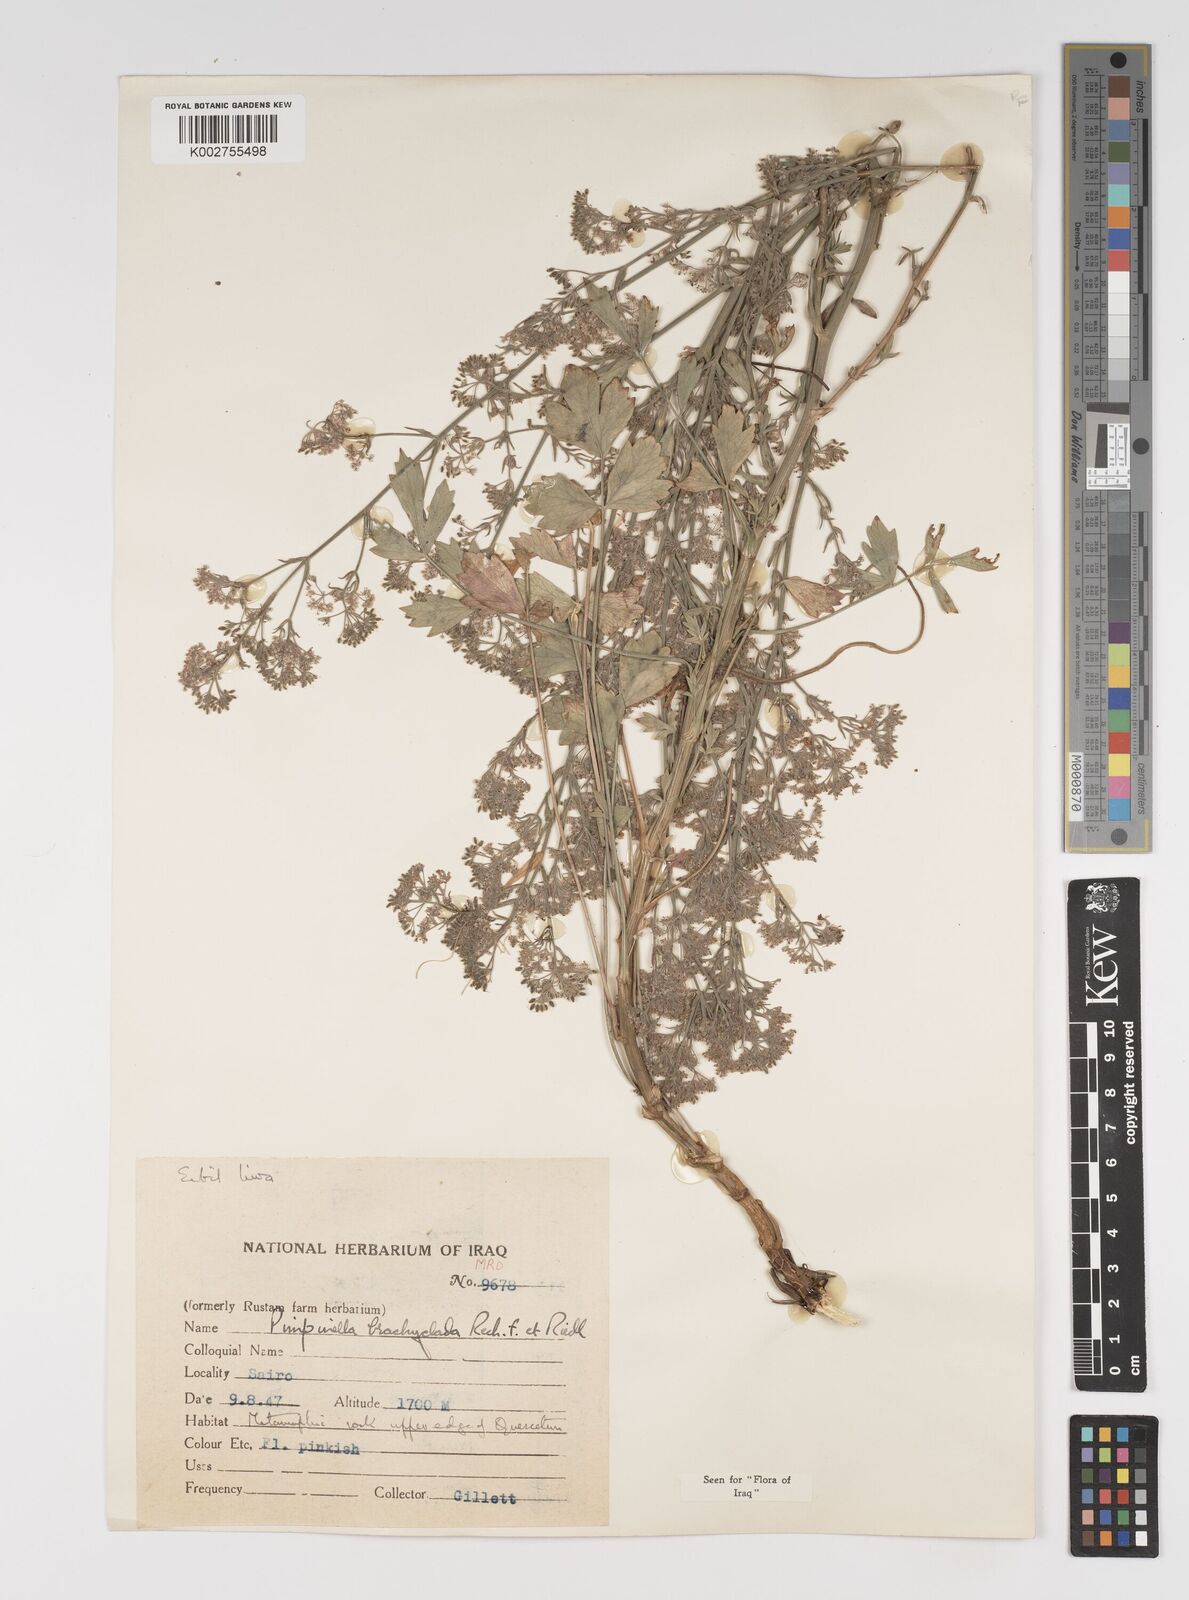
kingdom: Plantae
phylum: Tracheophyta
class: Magnoliopsida
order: Apiales
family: Apiaceae
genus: Pimpinella
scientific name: Pimpinella brachyclada
